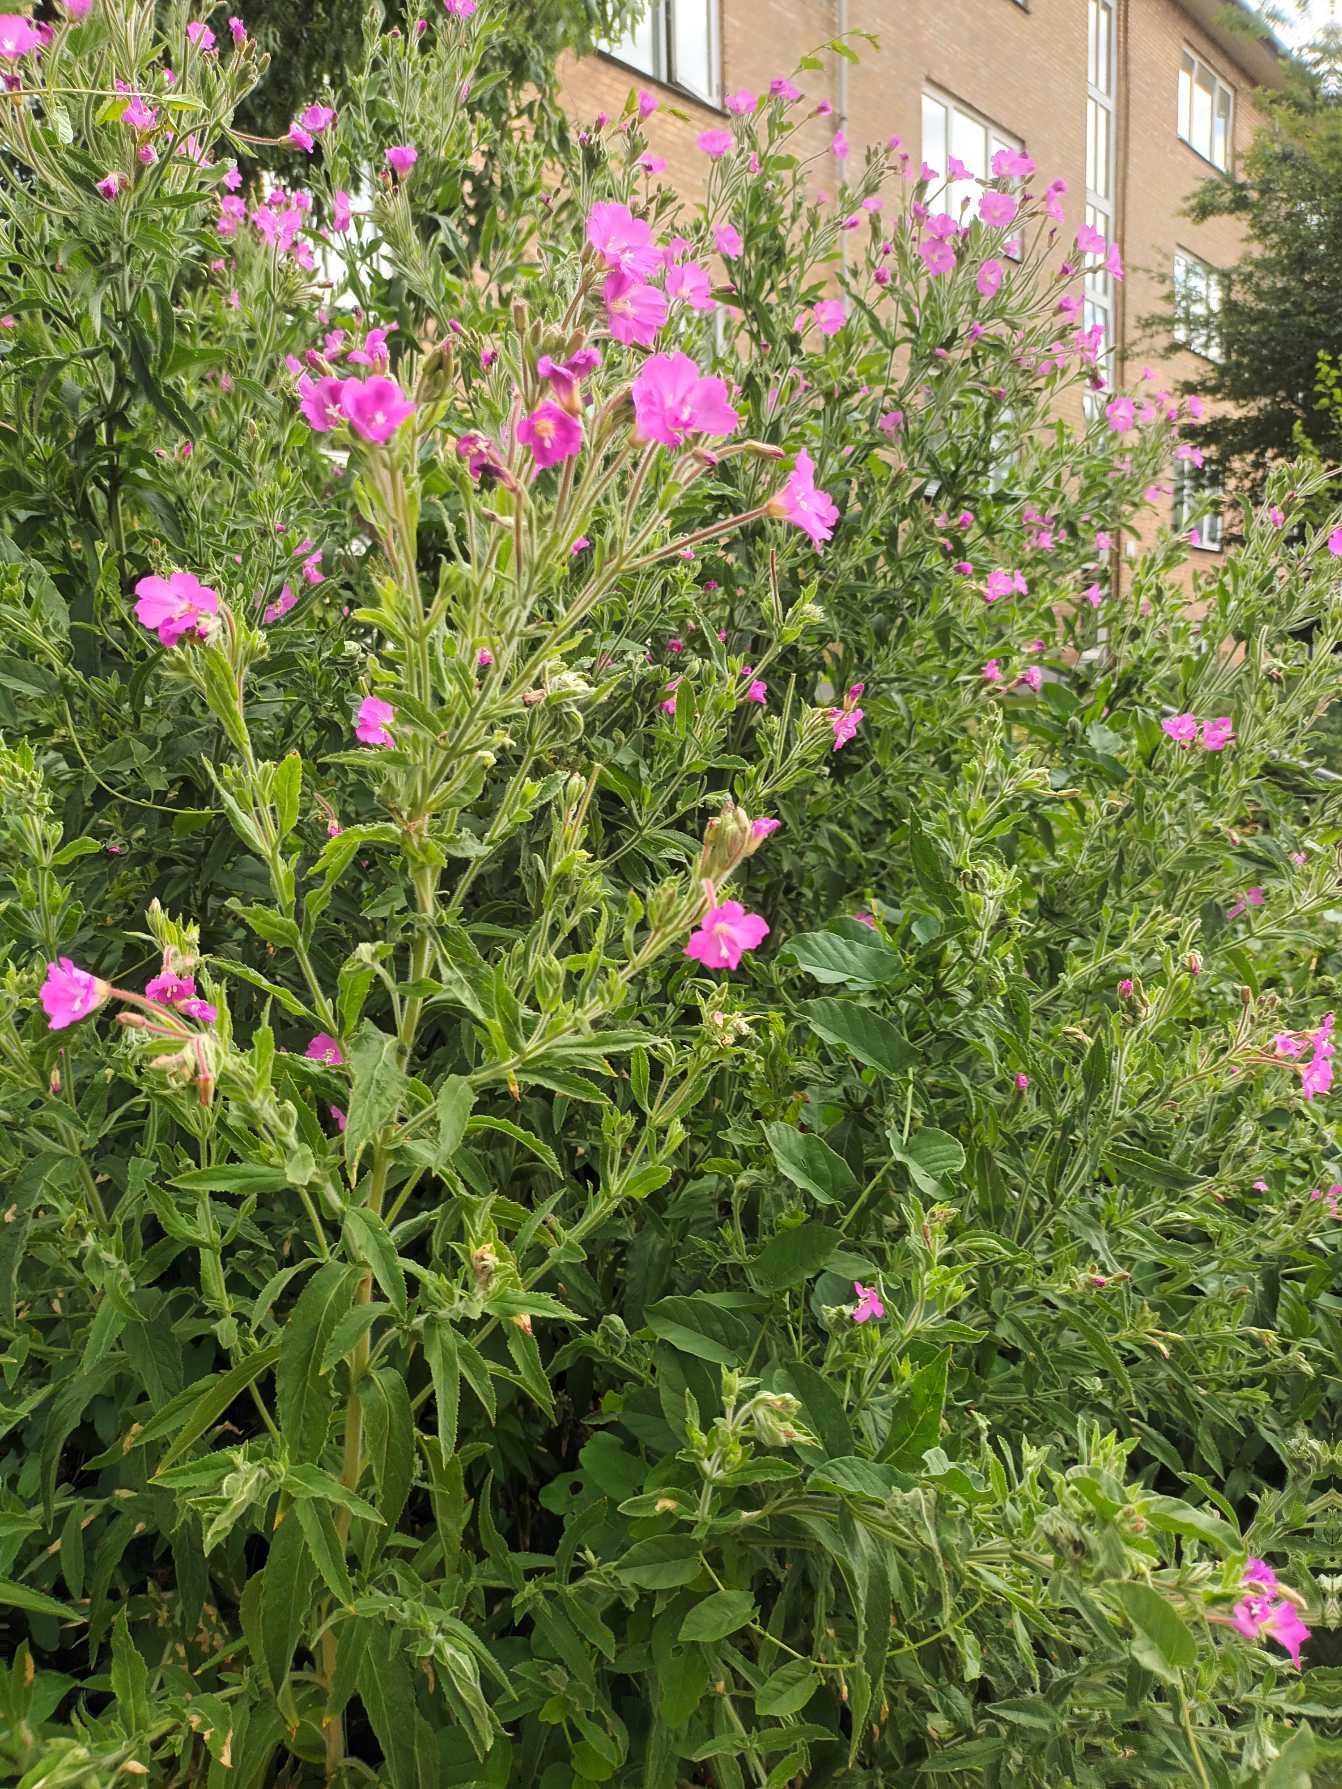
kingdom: Plantae
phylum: Tracheophyta
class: Magnoliopsida
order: Myrtales
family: Onagraceae
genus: Epilobium
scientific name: Epilobium hirsutum
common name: Lådden dueurt
